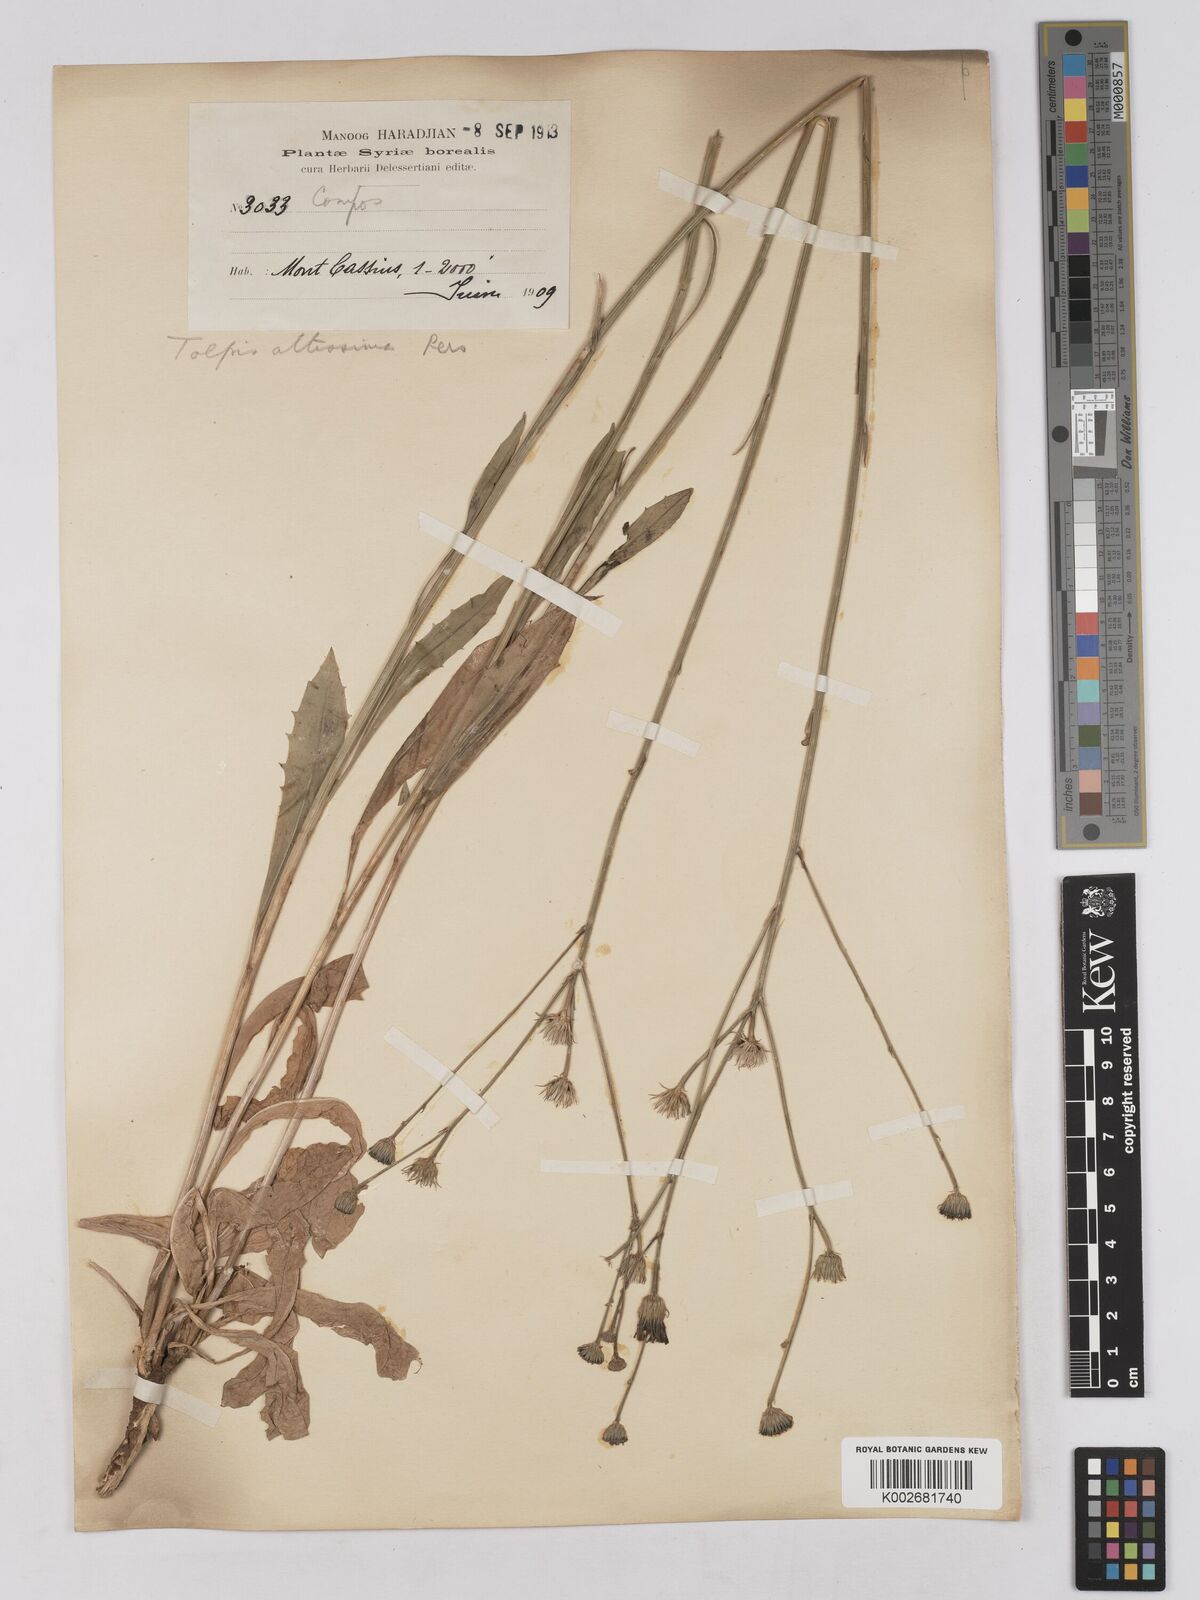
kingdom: Plantae
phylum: Tracheophyta
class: Magnoliopsida
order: Asterales
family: Asteraceae
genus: Tolpis
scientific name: Tolpis virgata
